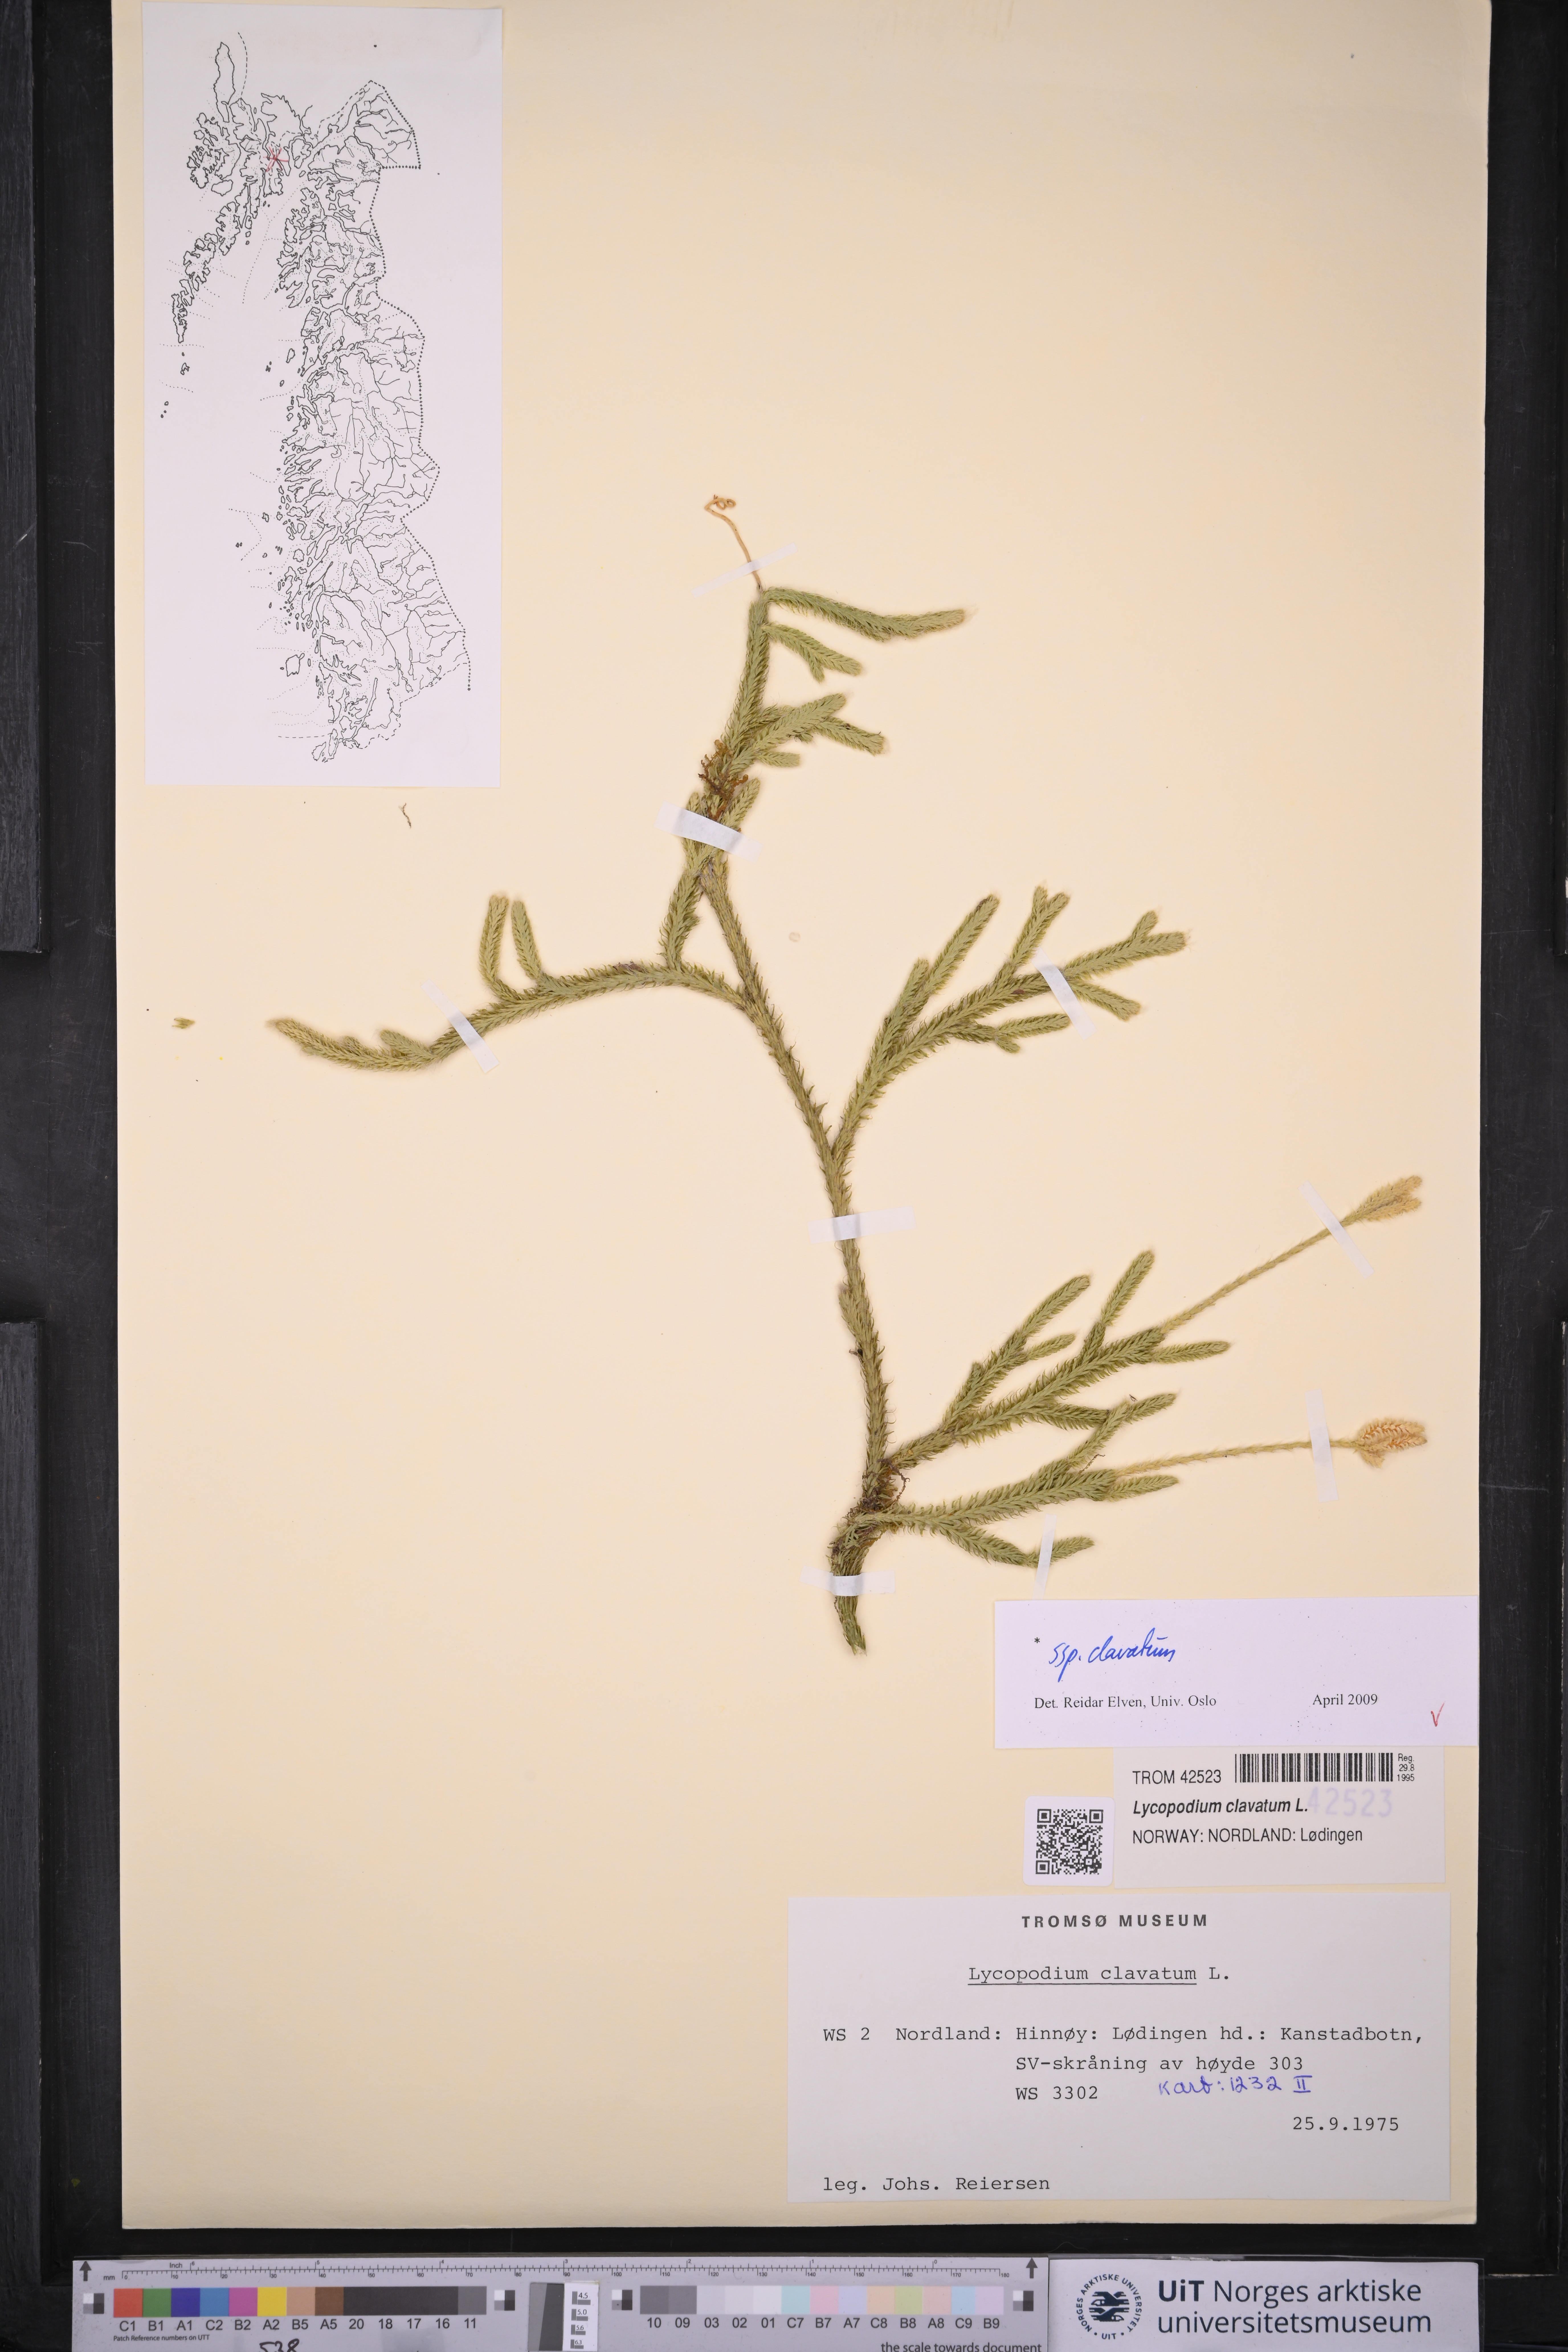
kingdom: Plantae
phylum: Tracheophyta
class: Lycopodiopsida
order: Lycopodiales
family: Lycopodiaceae
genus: Lycopodium
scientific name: Lycopodium clavatum
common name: Stag's-horn clubmoss
